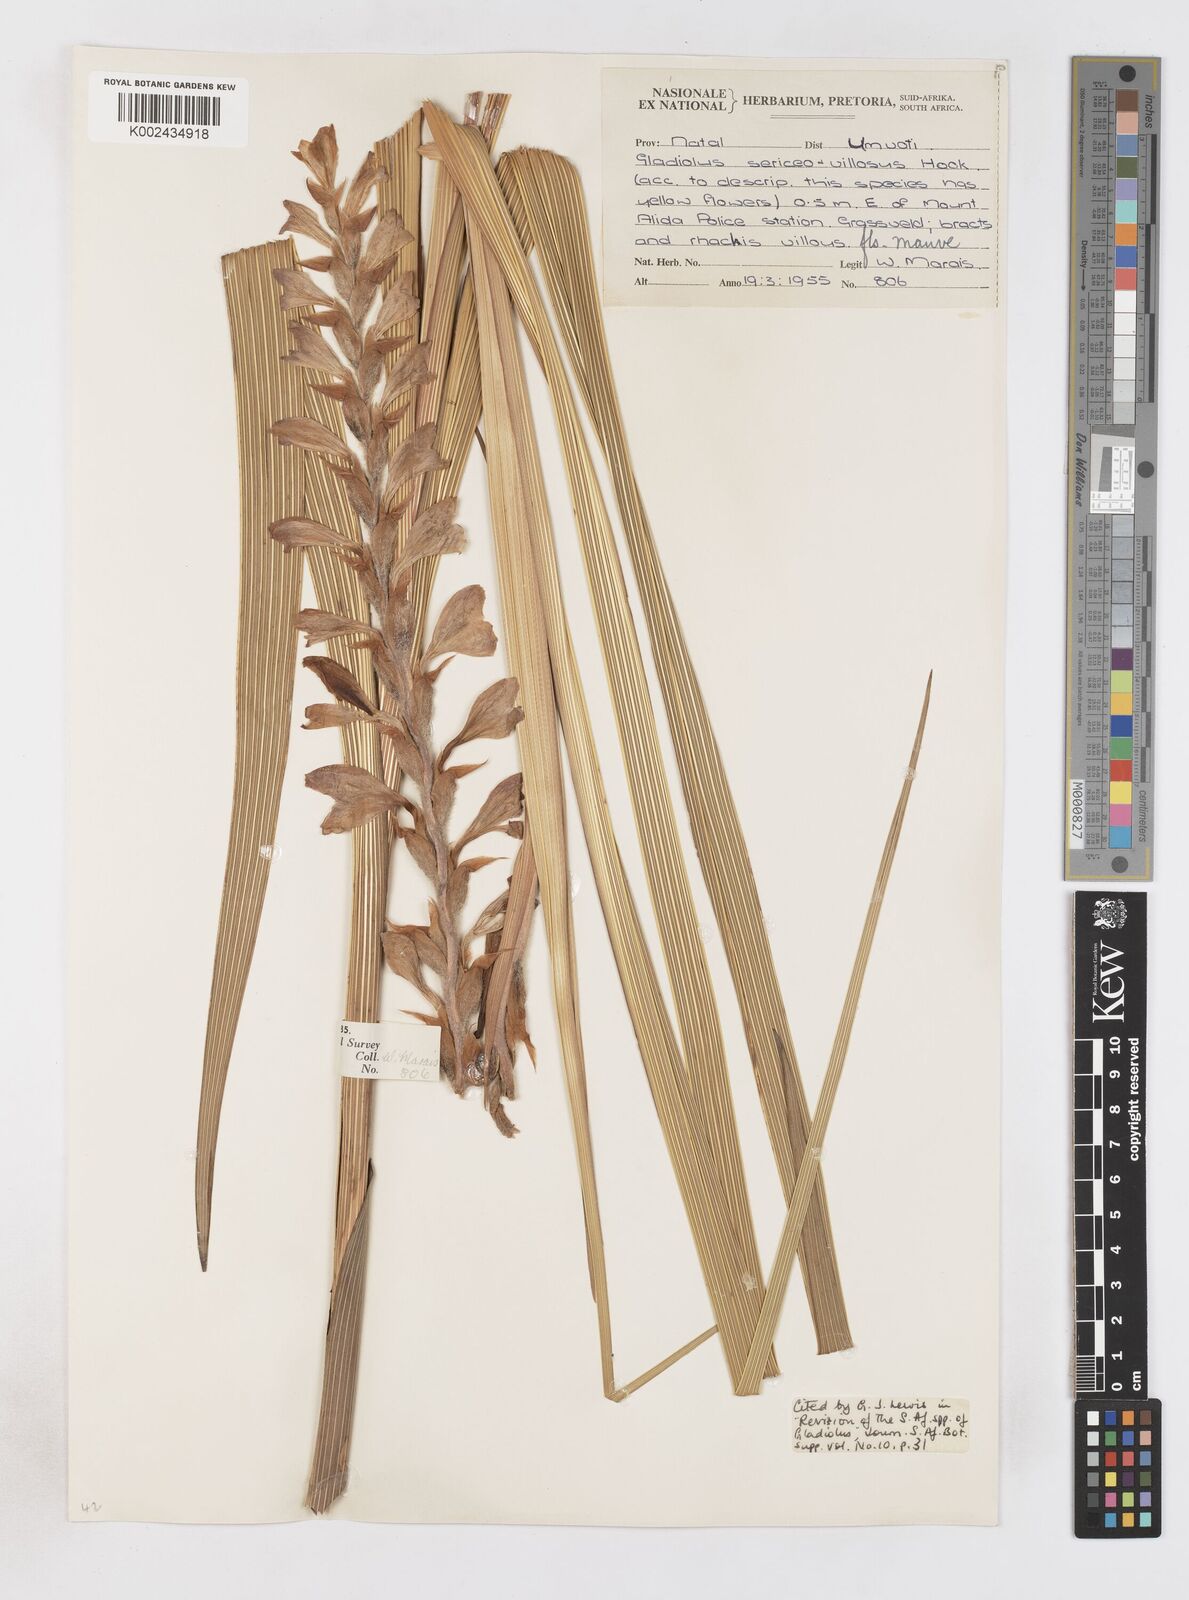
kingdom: Plantae
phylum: Tracheophyta
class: Liliopsida
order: Asparagales
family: Iridaceae
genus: Gladiolus
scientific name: Gladiolus sericeovillosus
